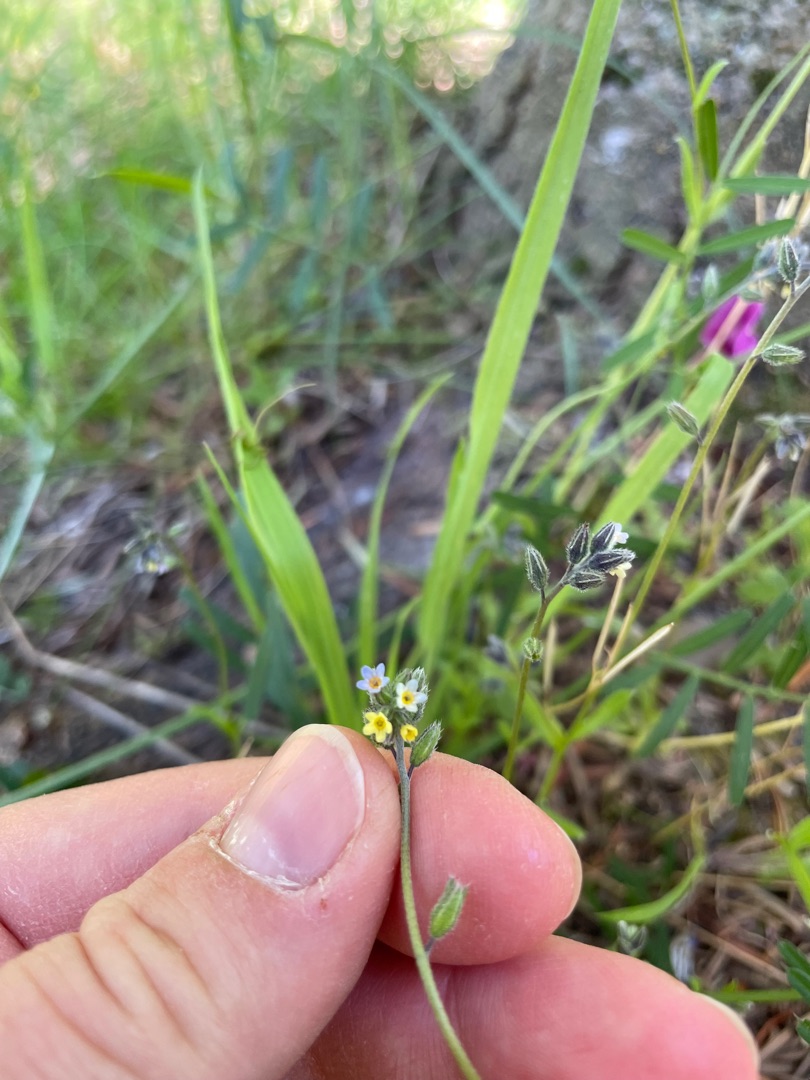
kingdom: Plantae
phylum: Tracheophyta
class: Magnoliopsida
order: Boraginales
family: Boraginaceae
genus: Myosotis
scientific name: Myosotis discolor
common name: Forskelligfarvet forglemmigej
